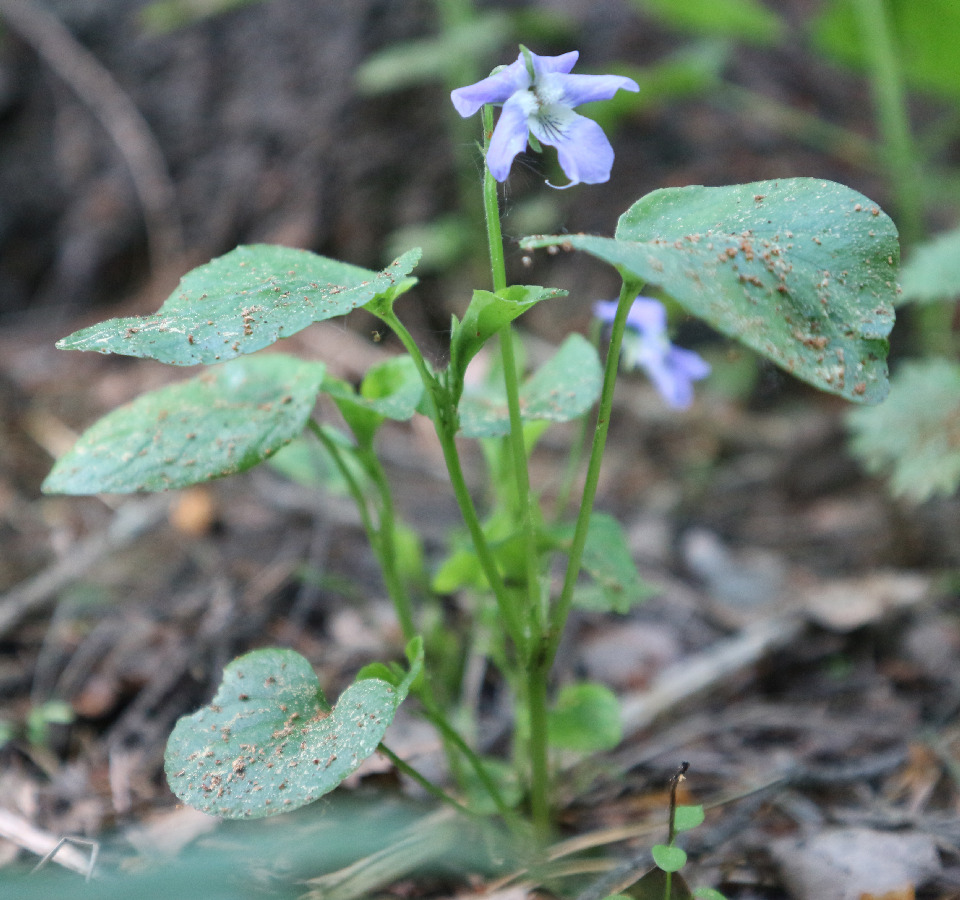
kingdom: Plantae
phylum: Tracheophyta
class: Magnoliopsida
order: Malpighiales
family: Violaceae
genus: Viola
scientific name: Viola canina
